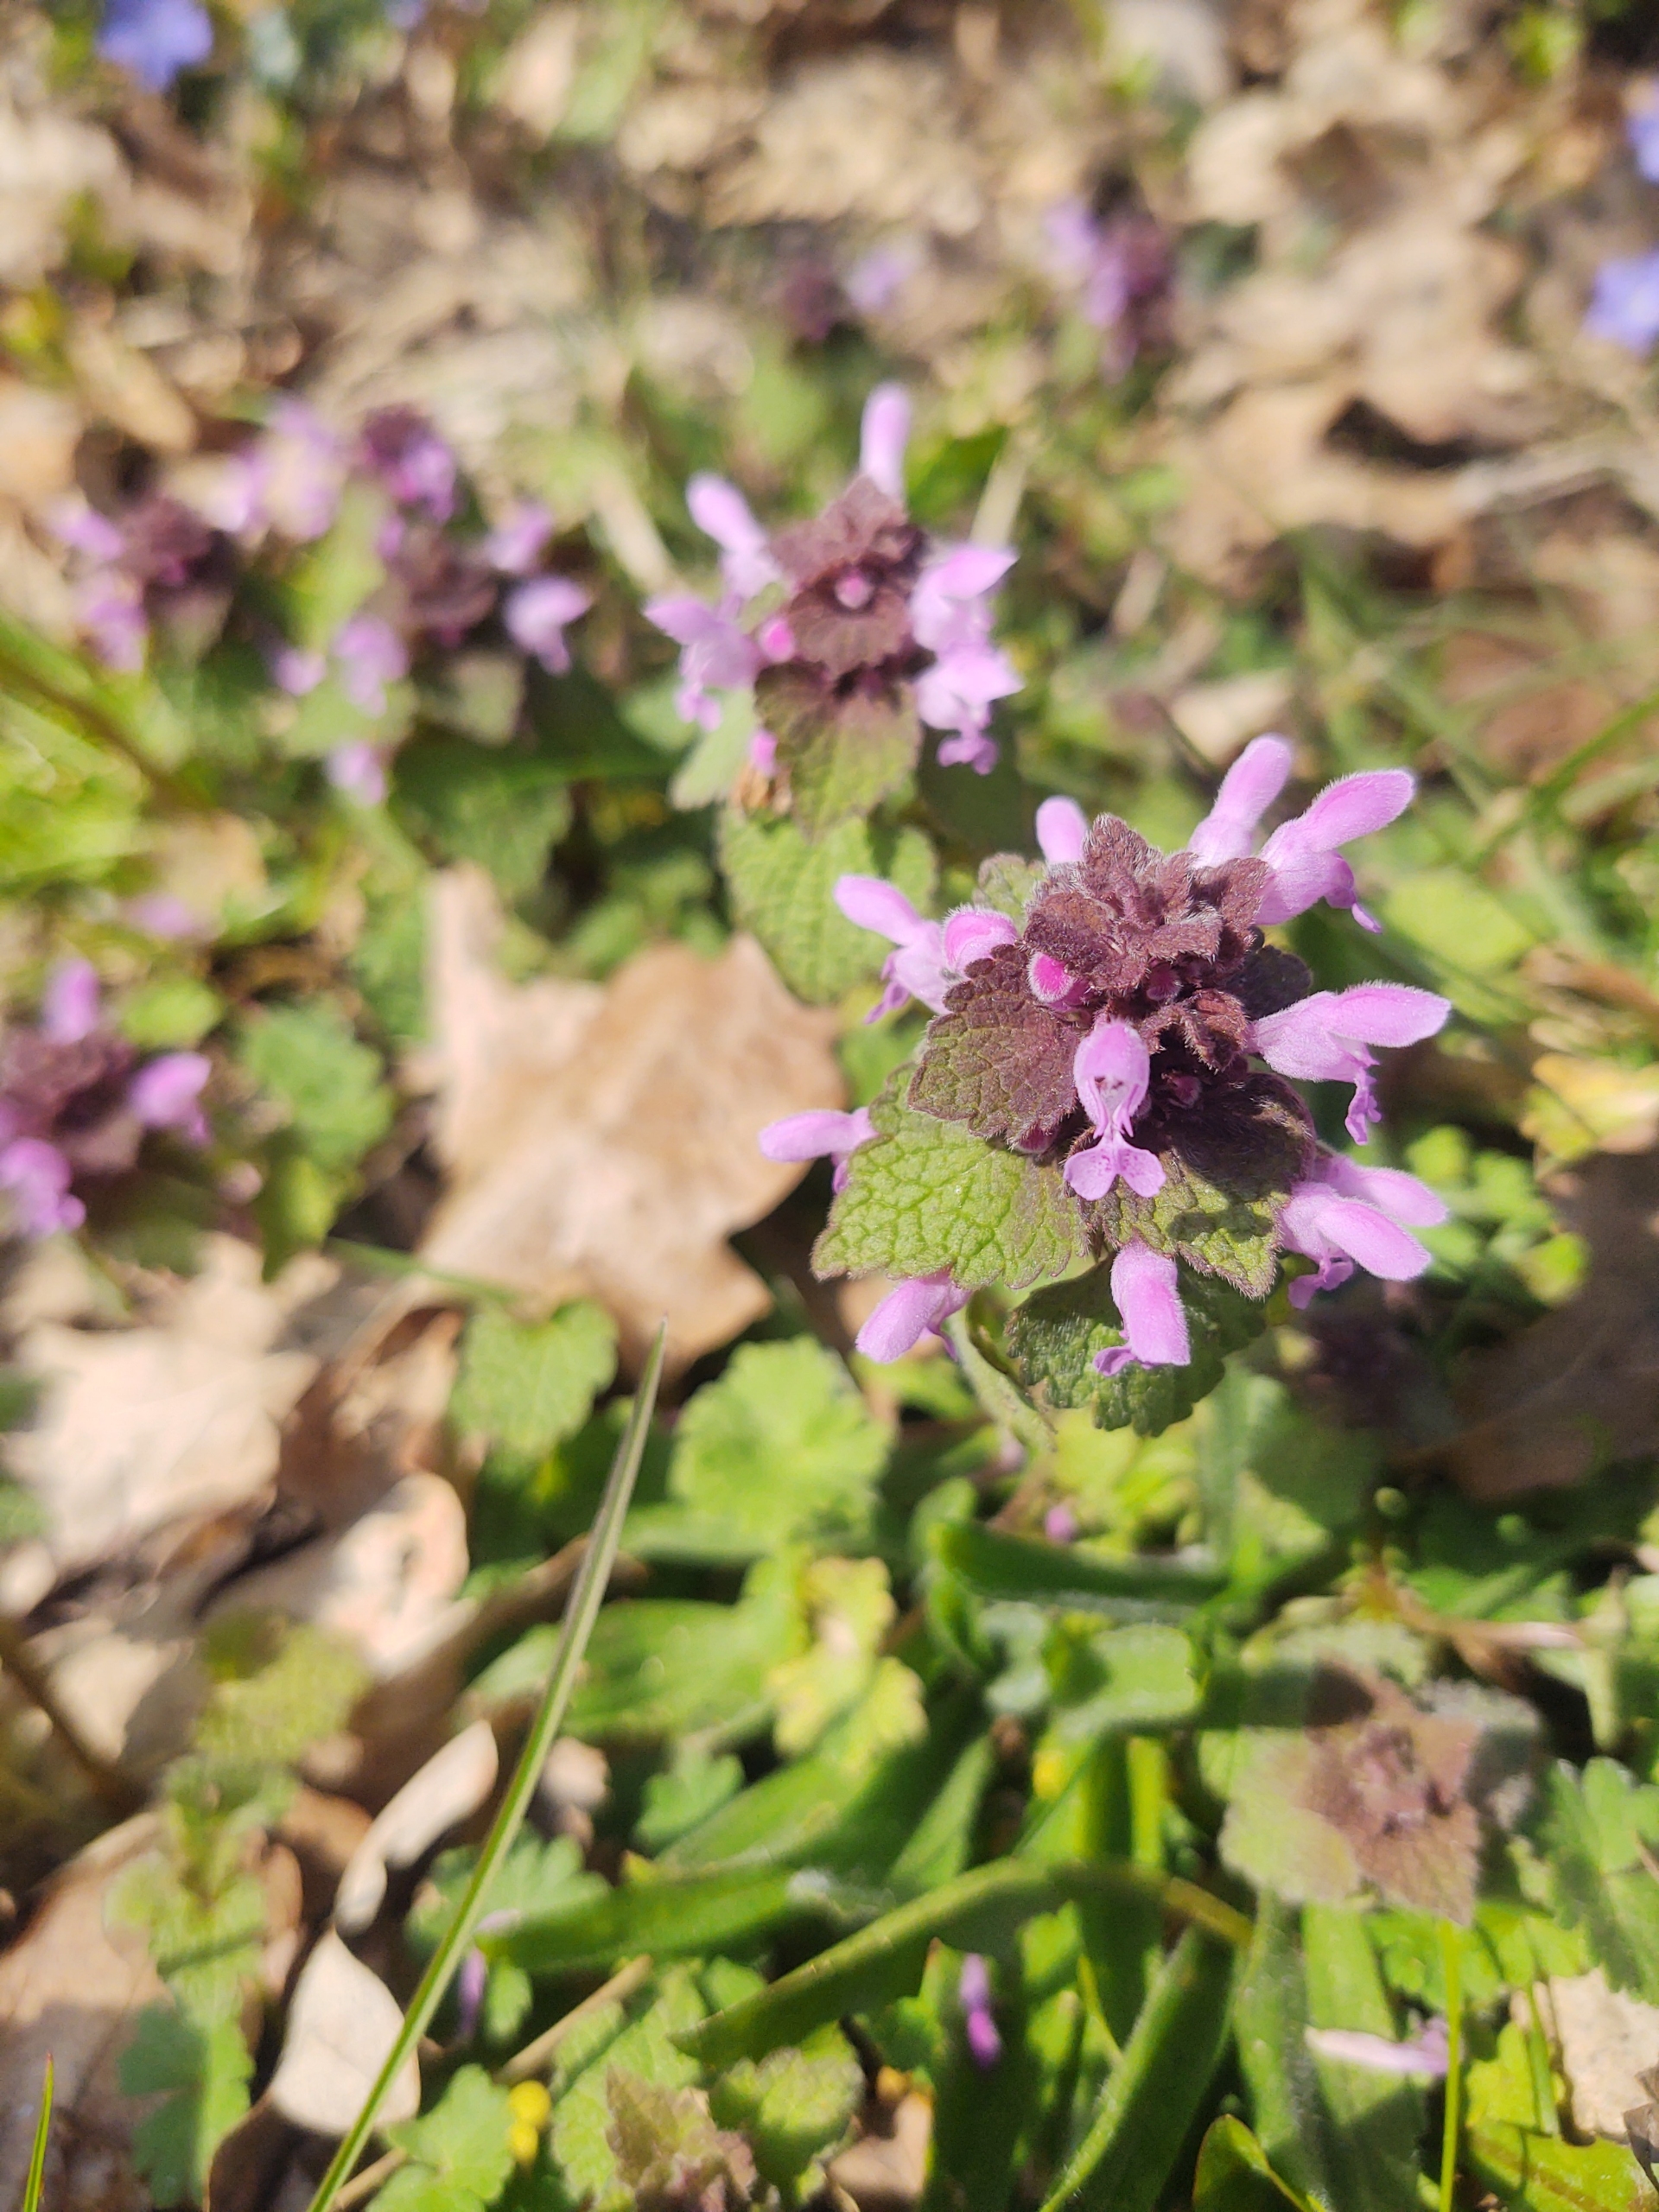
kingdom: Plantae
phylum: Tracheophyta
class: Magnoliopsida
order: Lamiales
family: Lamiaceae
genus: Lamium
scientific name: Lamium purpureum
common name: Rød tvetand
